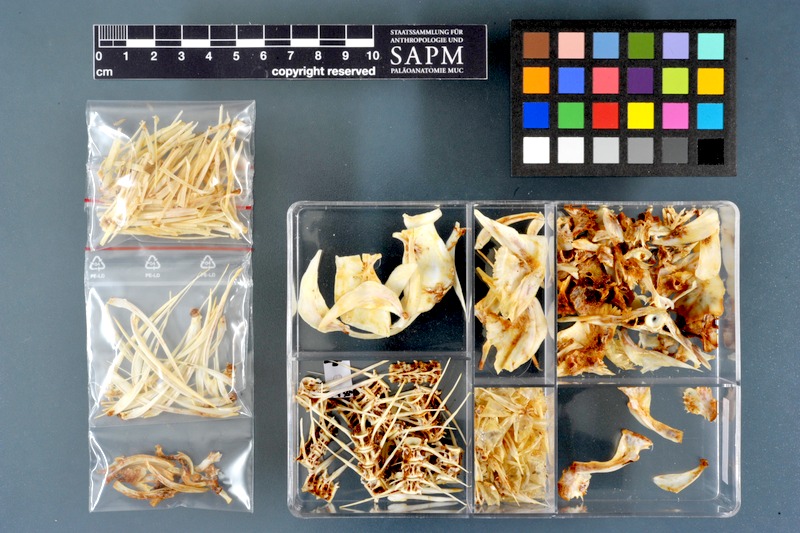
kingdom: Animalia
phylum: Chordata
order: Cypriniformes
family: Cyprinidae
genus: Labeo
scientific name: Labeo horie
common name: Assuan labeo
